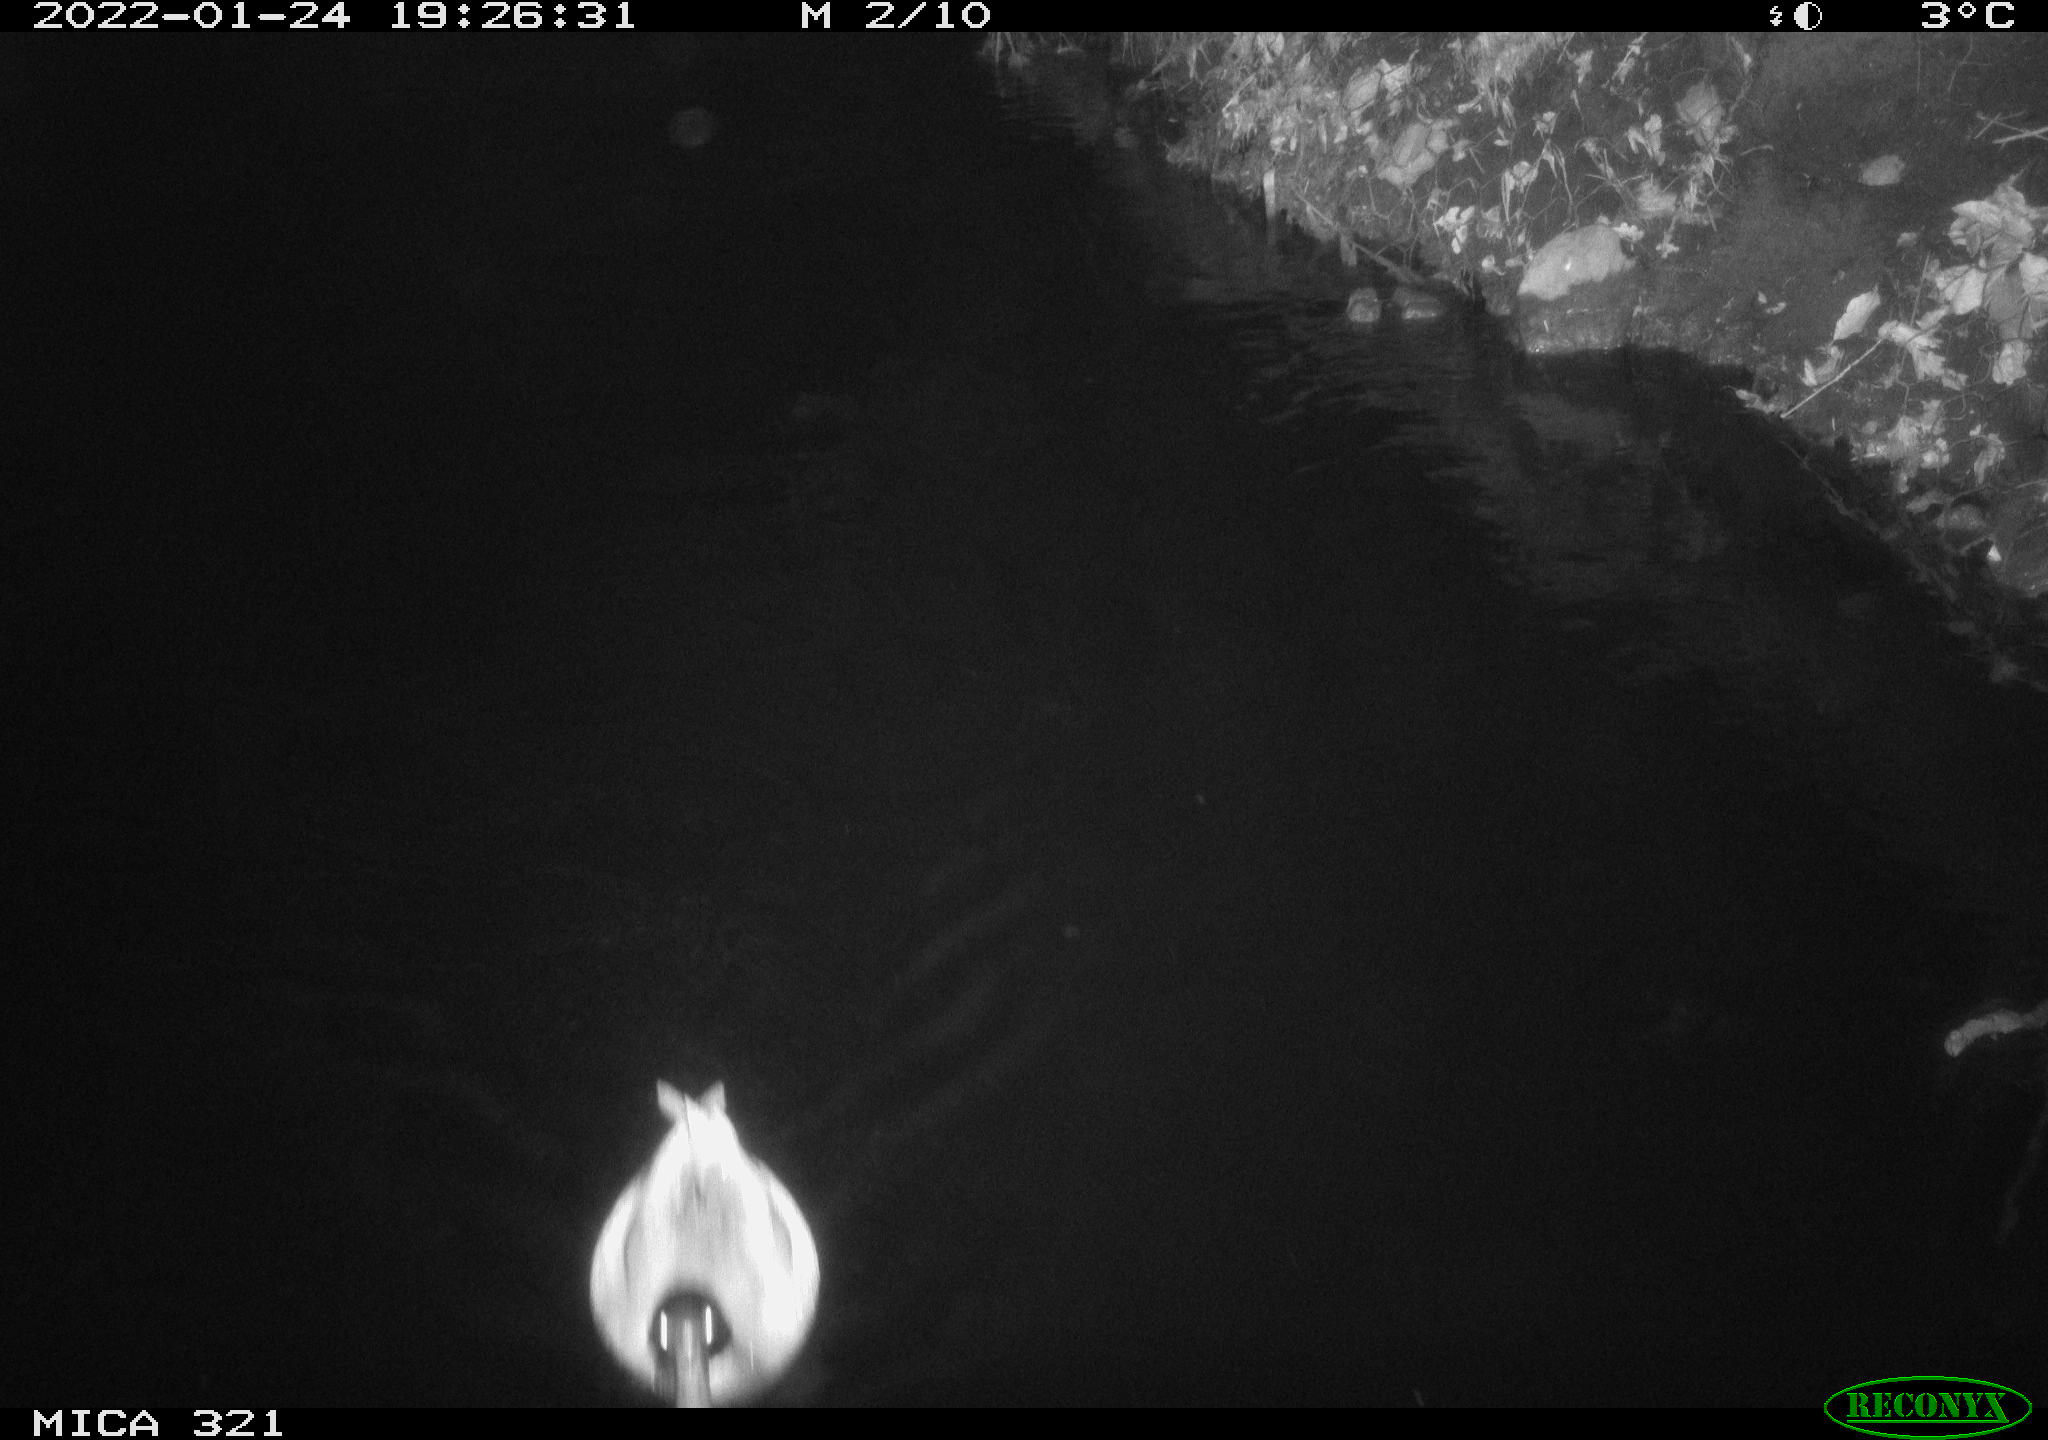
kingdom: Animalia
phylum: Chordata
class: Aves
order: Anseriformes
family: Anatidae
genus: Anas
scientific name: Anas
